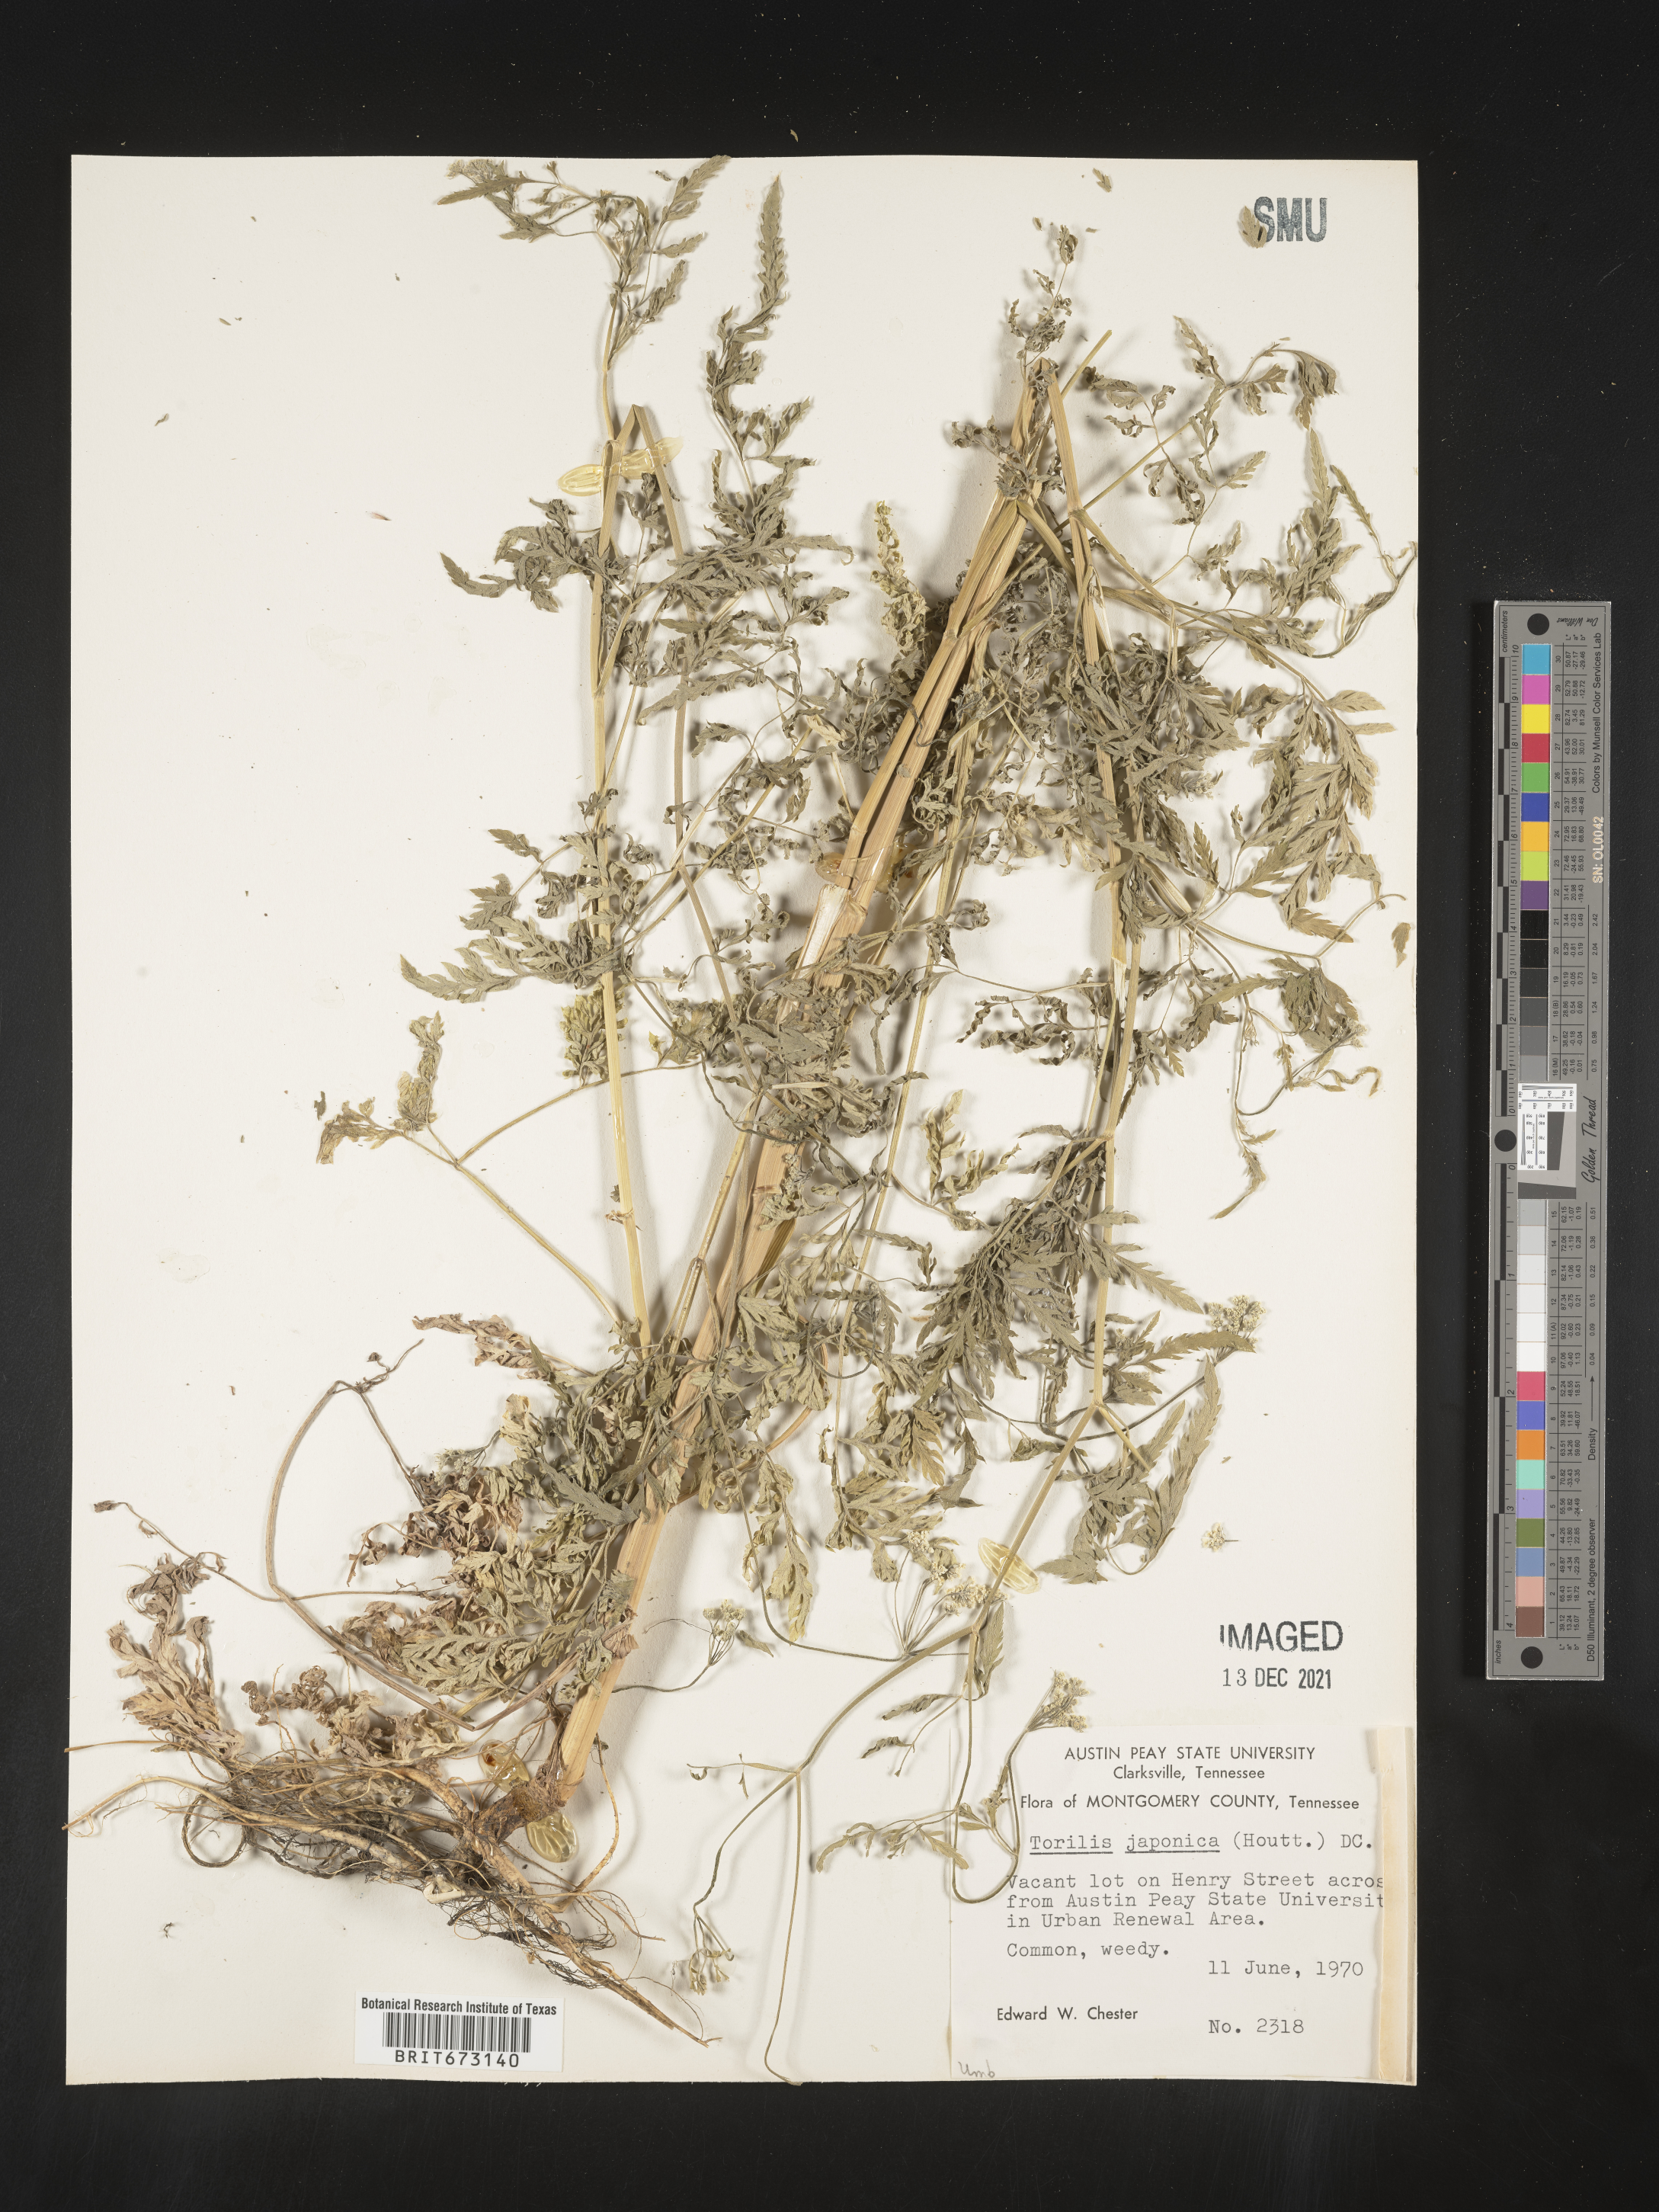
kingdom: Plantae
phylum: Tracheophyta
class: Magnoliopsida
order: Apiales
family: Apiaceae
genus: Torilis
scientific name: Torilis arvensis
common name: Spreading hedge-parsley
